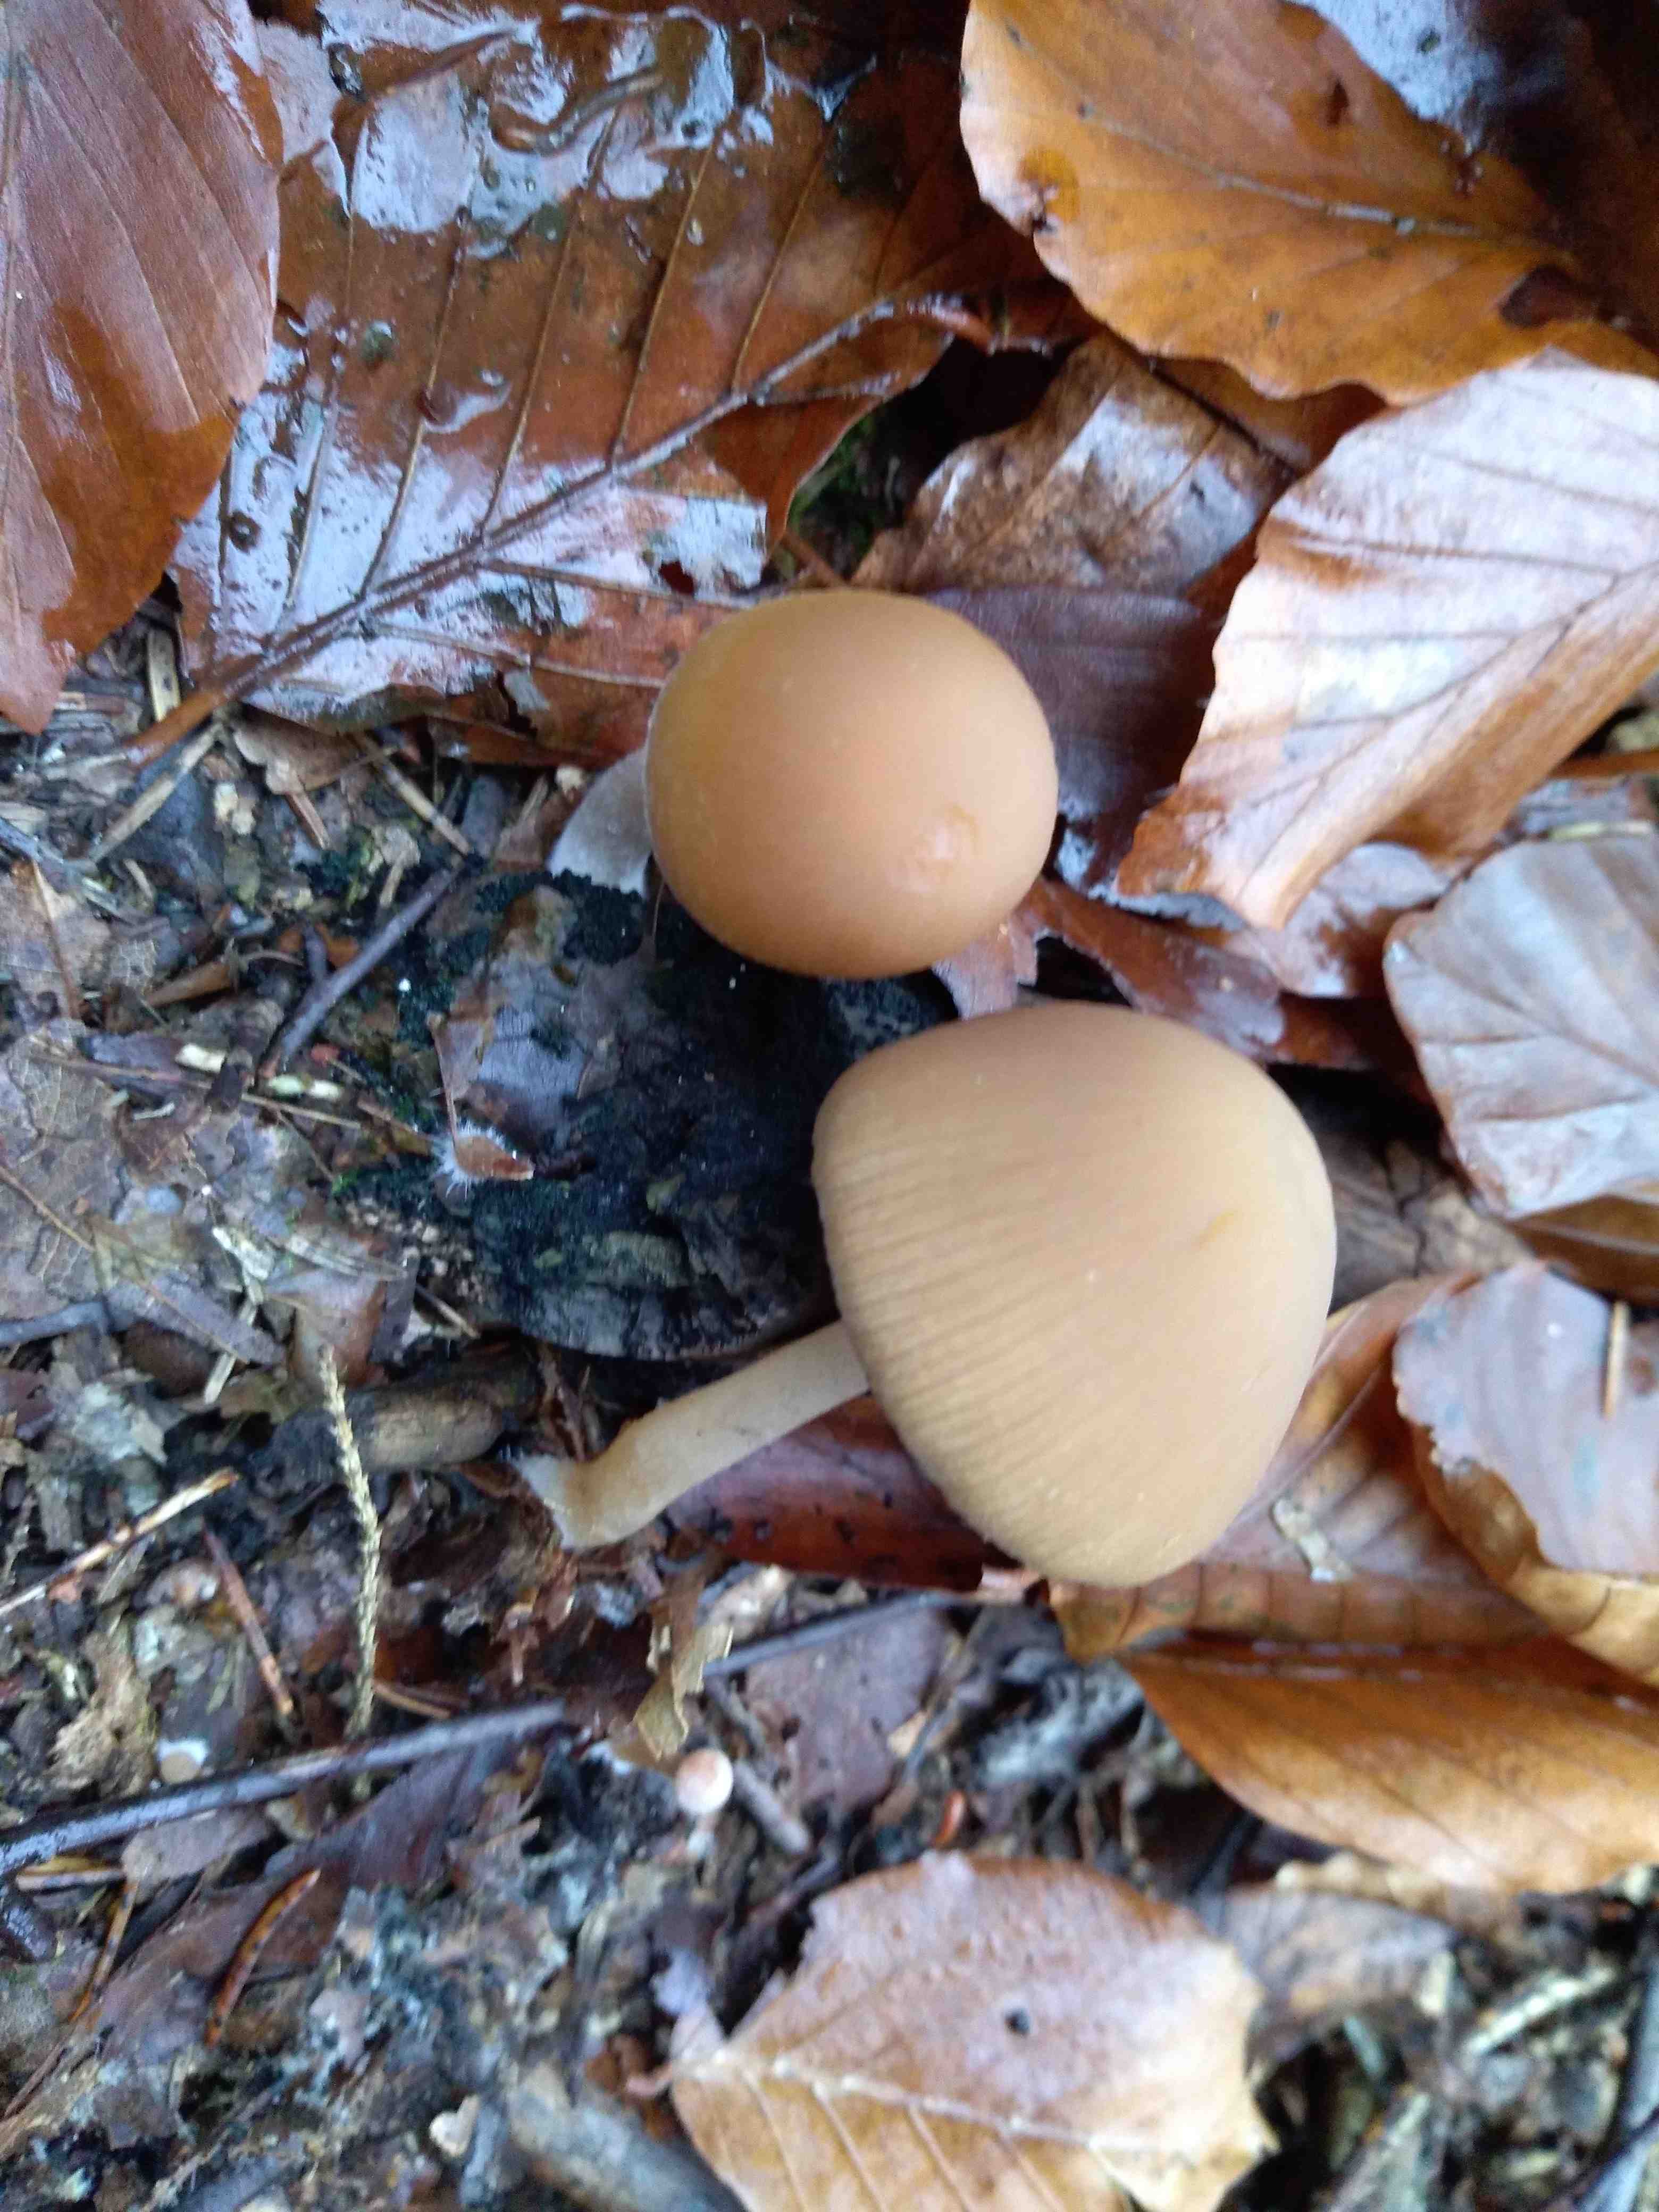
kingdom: Fungi
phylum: Basidiomycota
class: Agaricomycetes
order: Agaricales
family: Psathyrellaceae
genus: Psathyrella
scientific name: Psathyrella piluliformis
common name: lysstokket mørkhat
